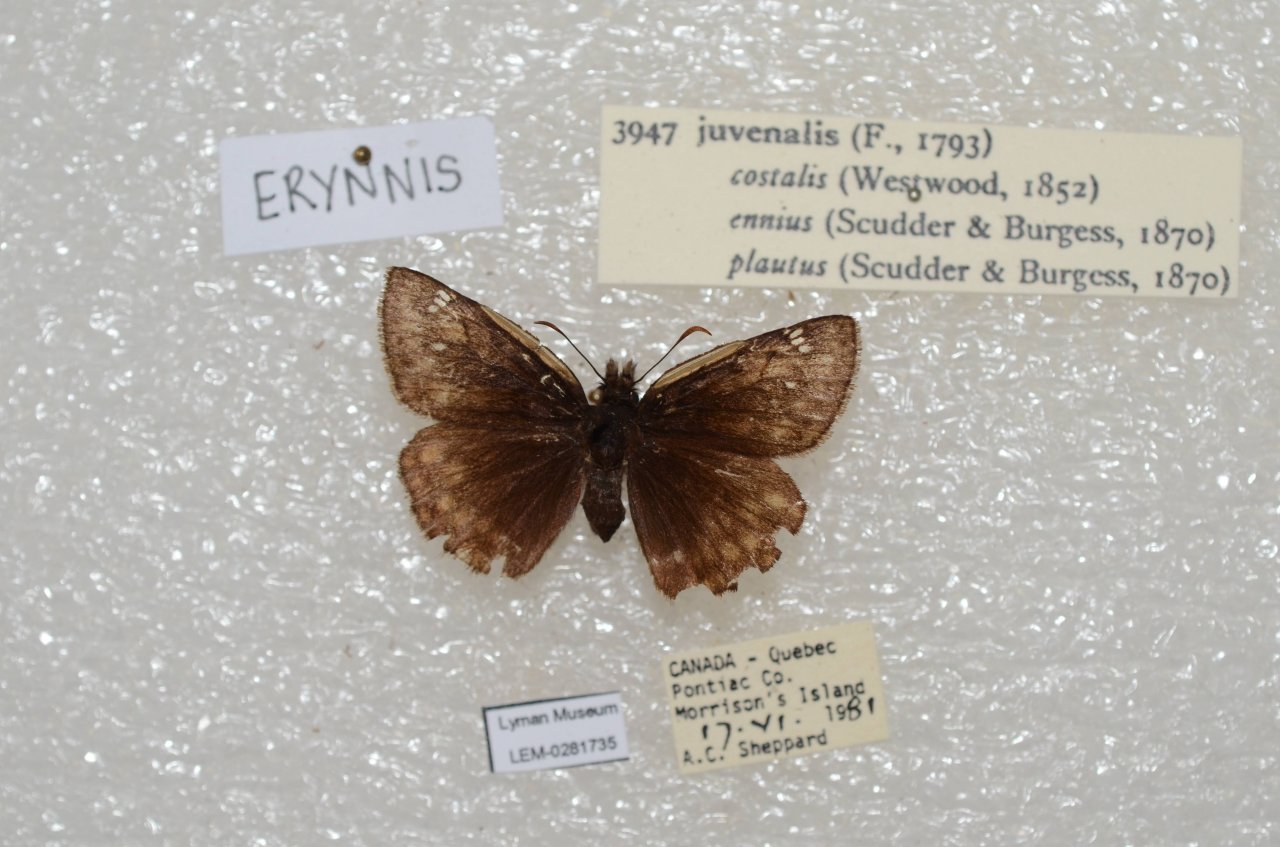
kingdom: Animalia
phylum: Arthropoda
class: Insecta
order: Lepidoptera
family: Hesperiidae
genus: Gesta
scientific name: Gesta
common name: Juvenal's Duskywing
